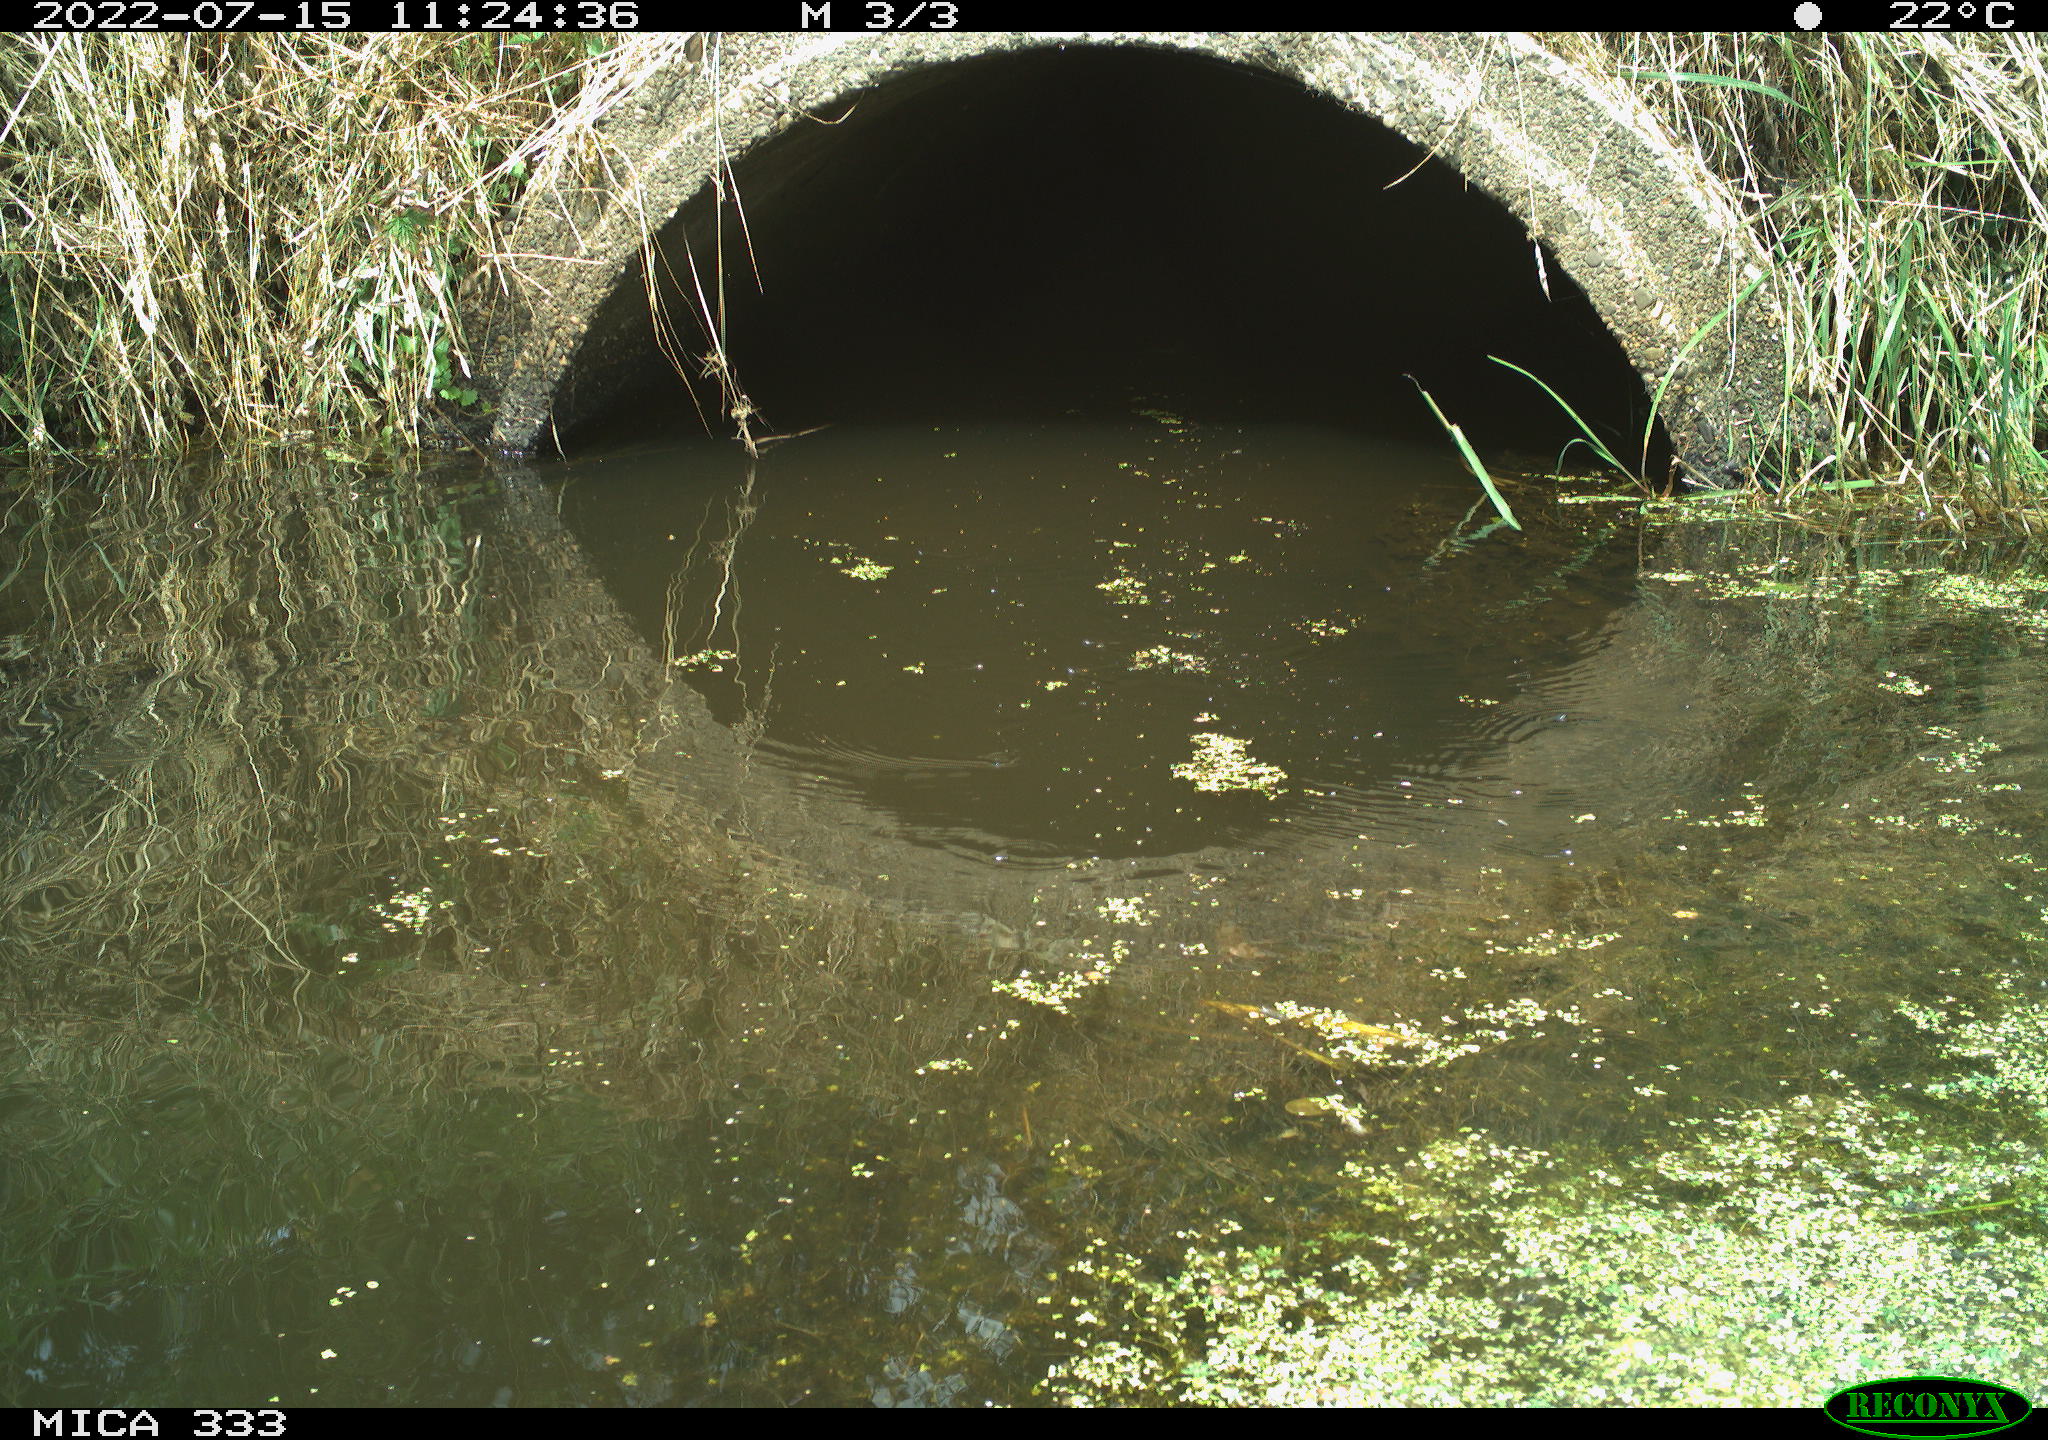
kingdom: Animalia
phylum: Chordata
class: Aves
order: Gruiformes
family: Rallidae
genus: Gallinula
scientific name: Gallinula chloropus
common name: Common moorhen
